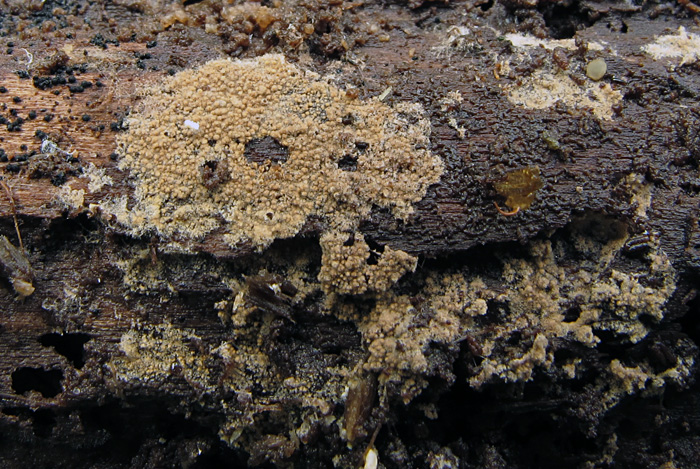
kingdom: Fungi
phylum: Basidiomycota
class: Agaricomycetes
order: Thelephorales
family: Thelephoraceae
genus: Tomentella
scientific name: Tomentella viridula
